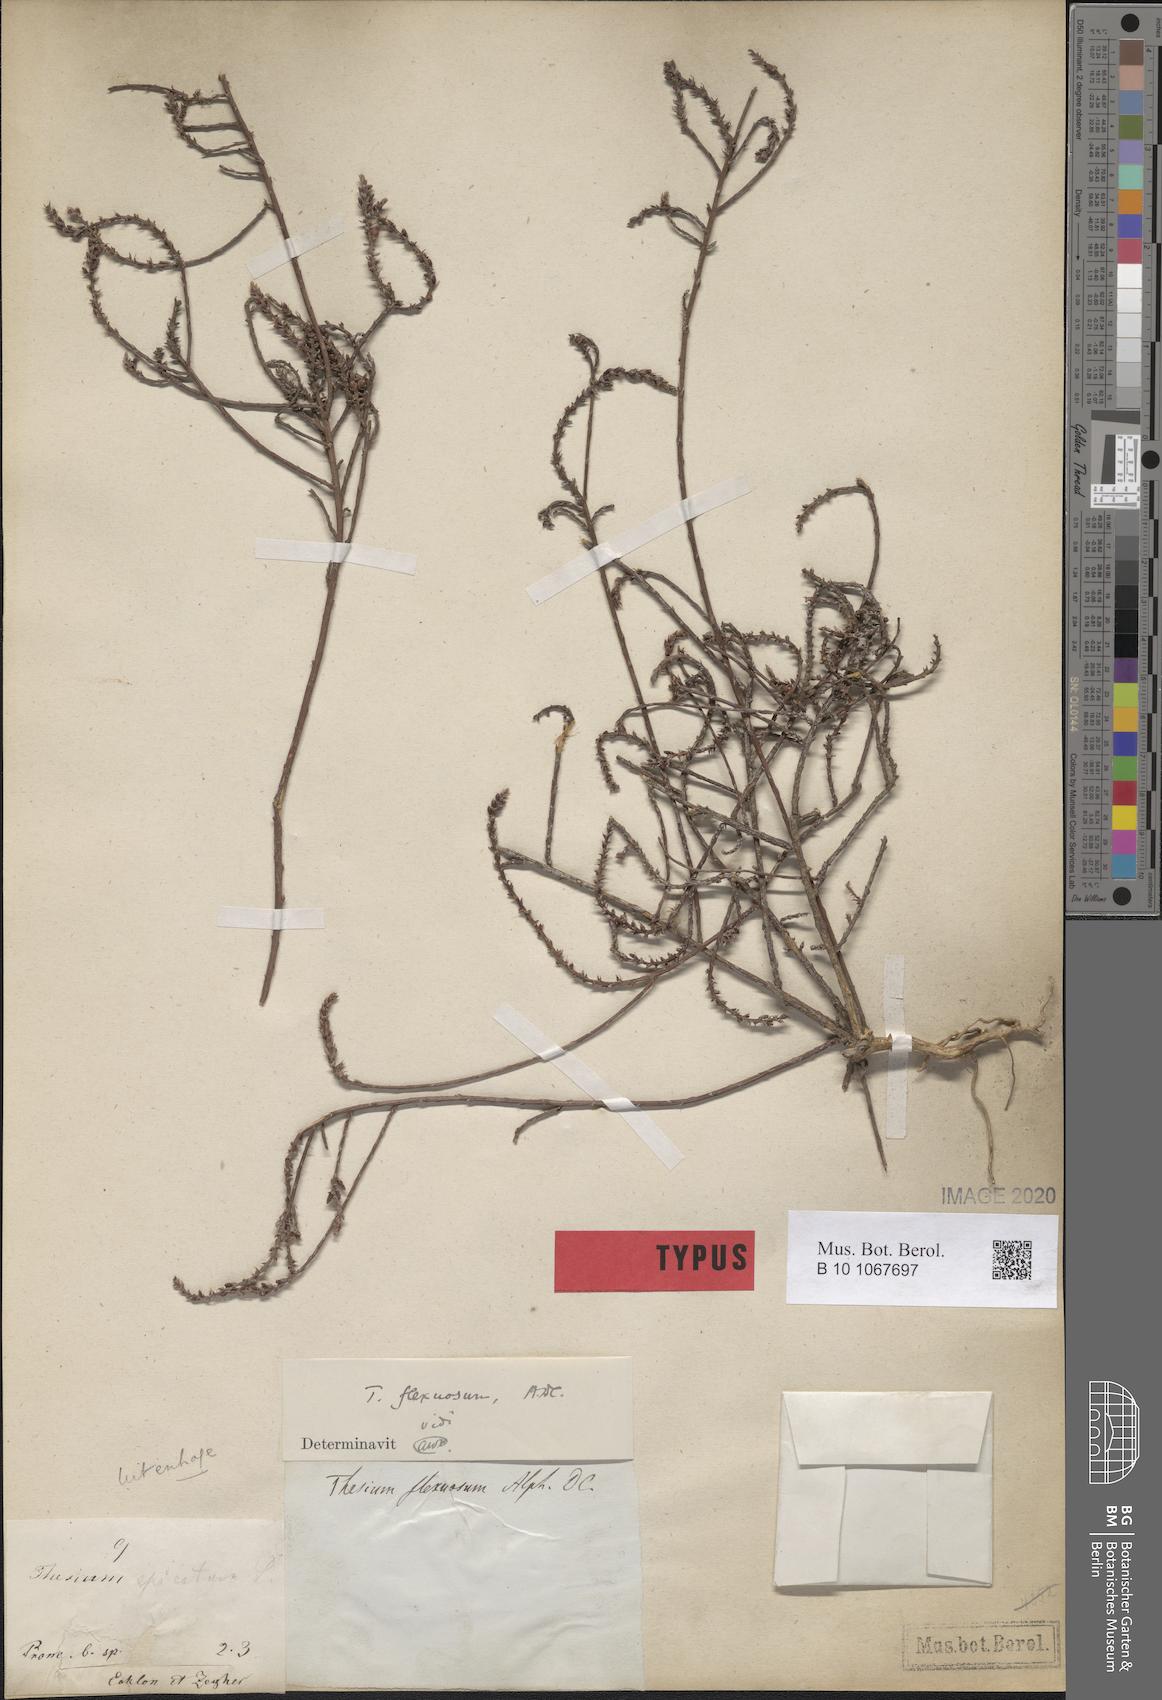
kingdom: Plantae
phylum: Tracheophyta
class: Magnoliopsida
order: Santalales
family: Thesiaceae
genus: Thesium
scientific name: Thesium flexuosum
